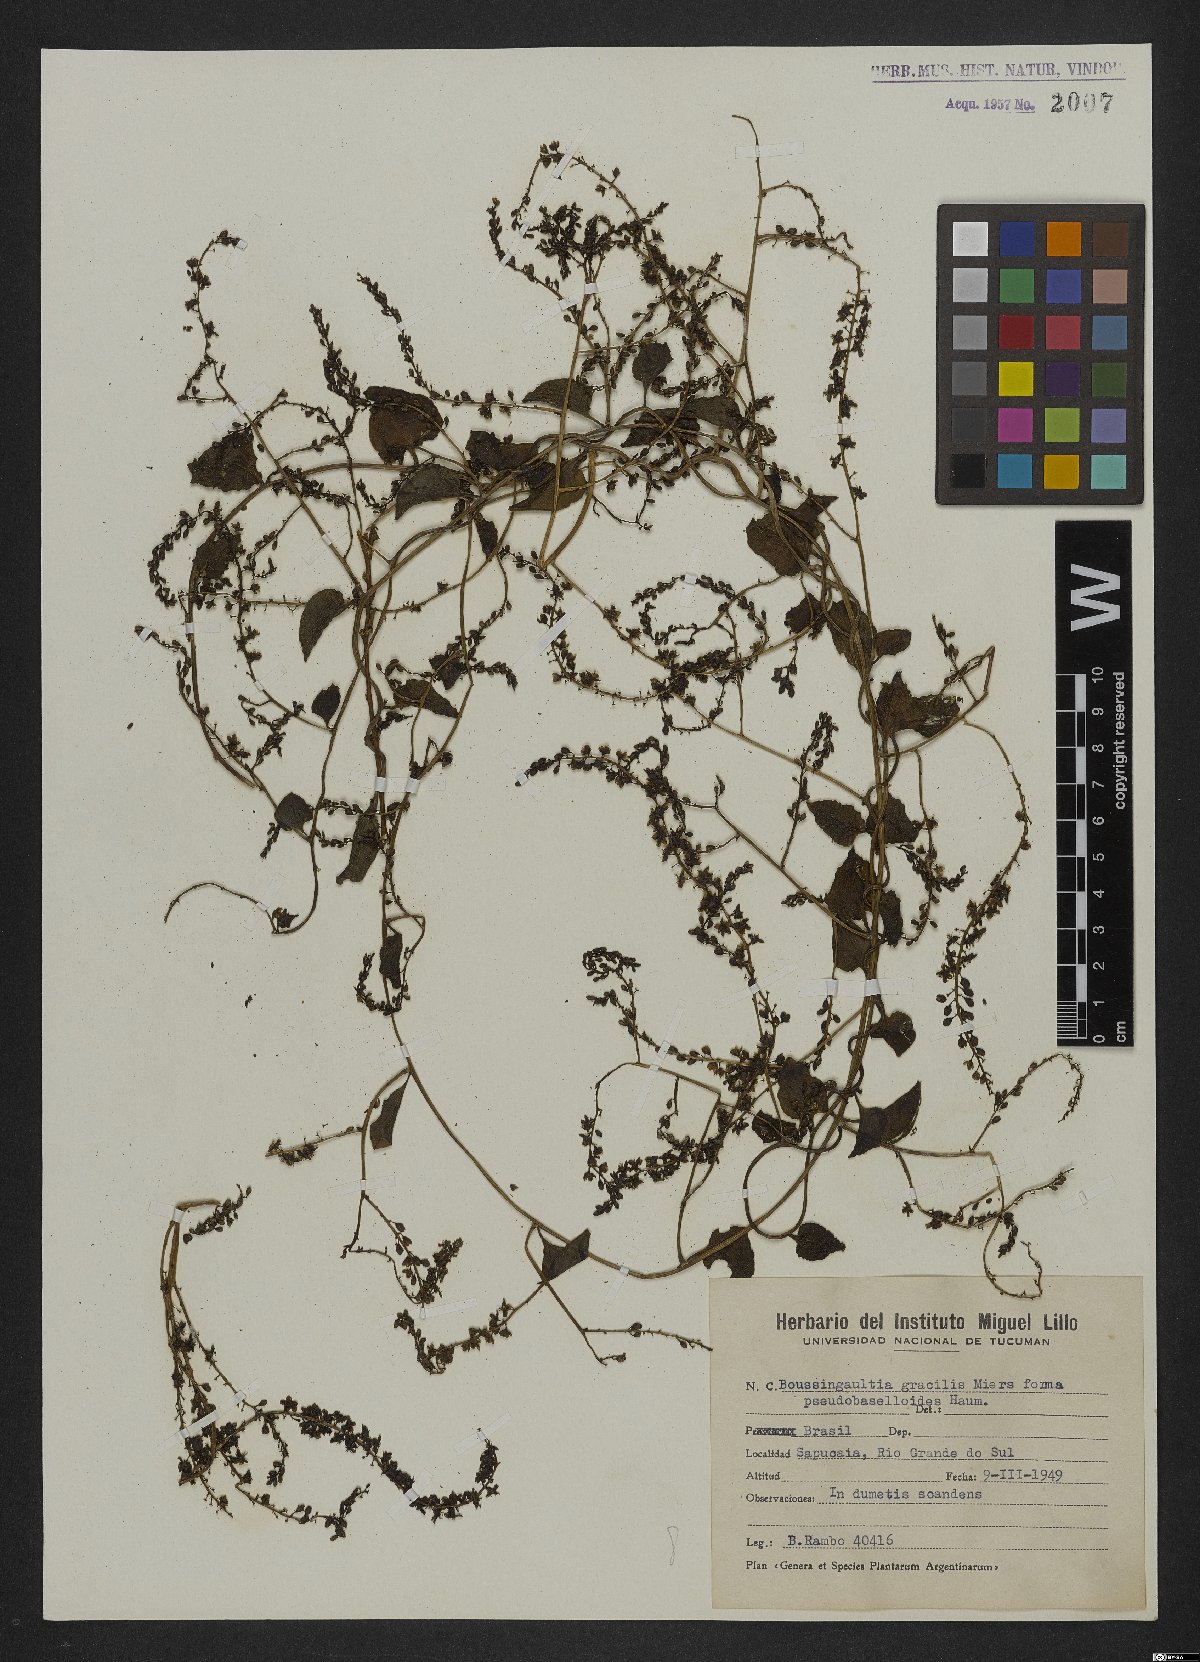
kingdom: Plantae
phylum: Tracheophyta
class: Magnoliopsida
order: Caryophyllales
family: Basellaceae
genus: Anredera
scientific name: Anredera cordifolia
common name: Heartleaf madeiravine
